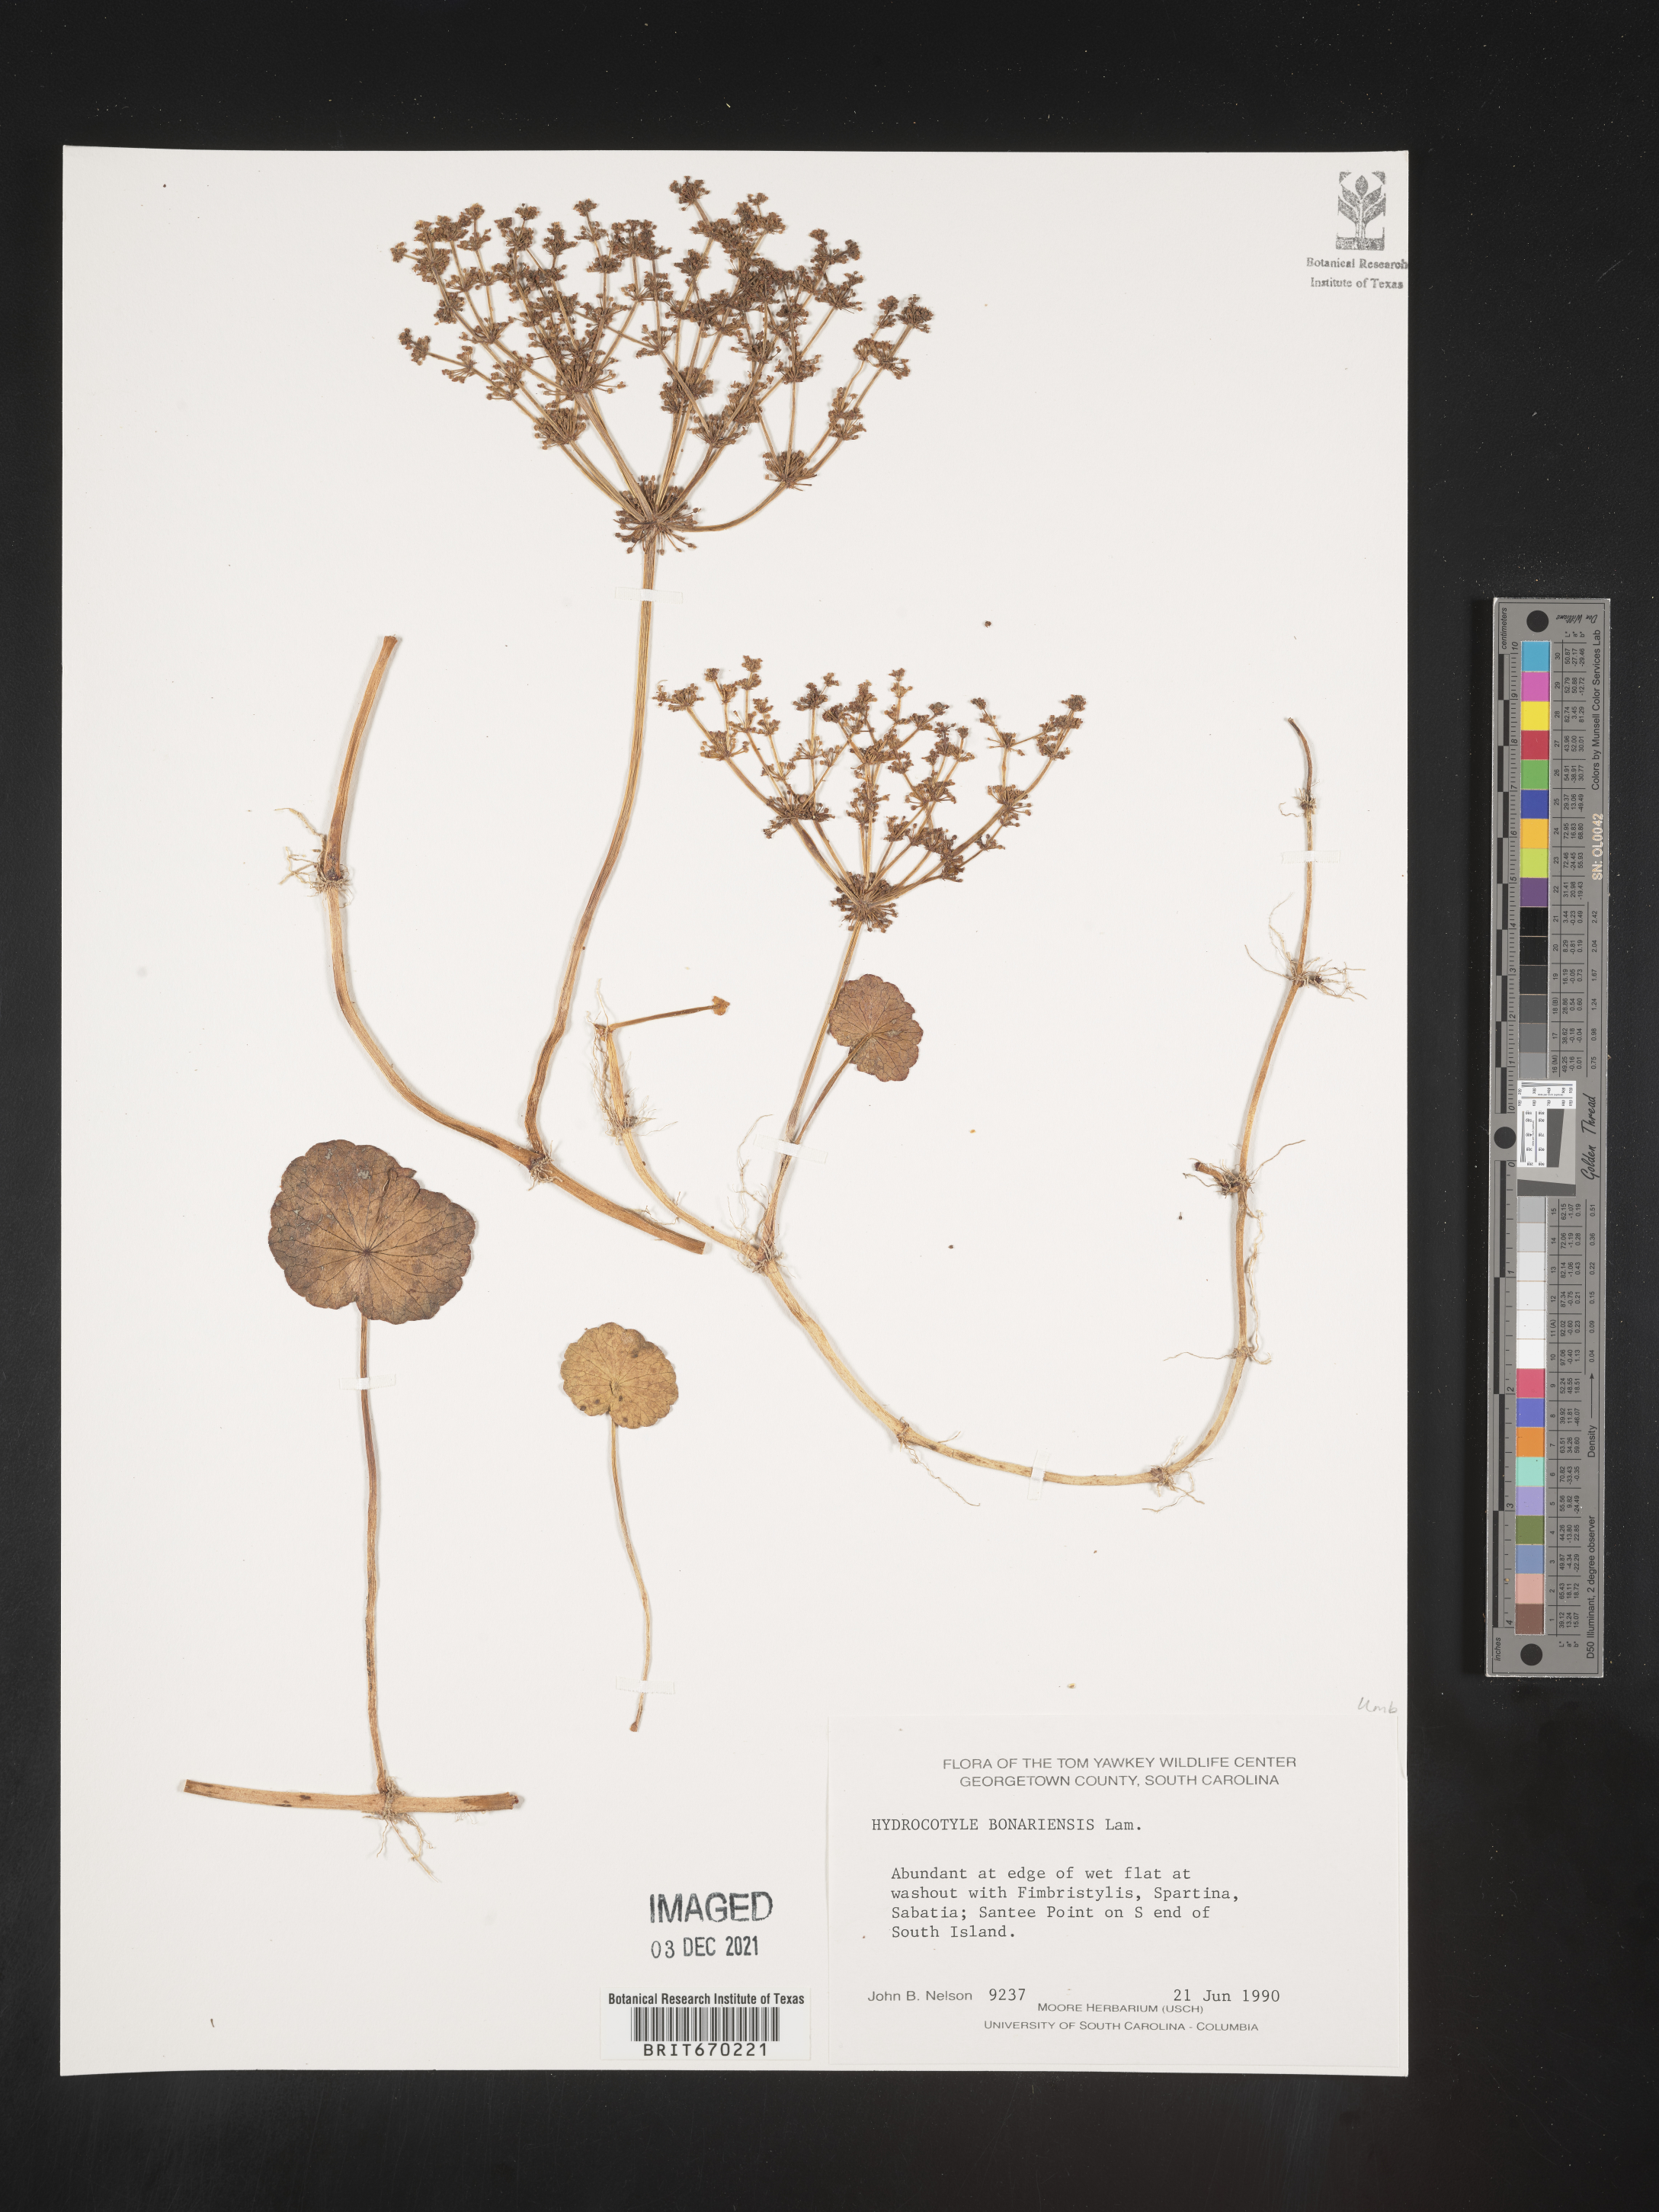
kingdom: Plantae
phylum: Tracheophyta
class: Magnoliopsida
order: Apiales
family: Araliaceae
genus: Hydrocotyle
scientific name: Hydrocotyle bonariensis
